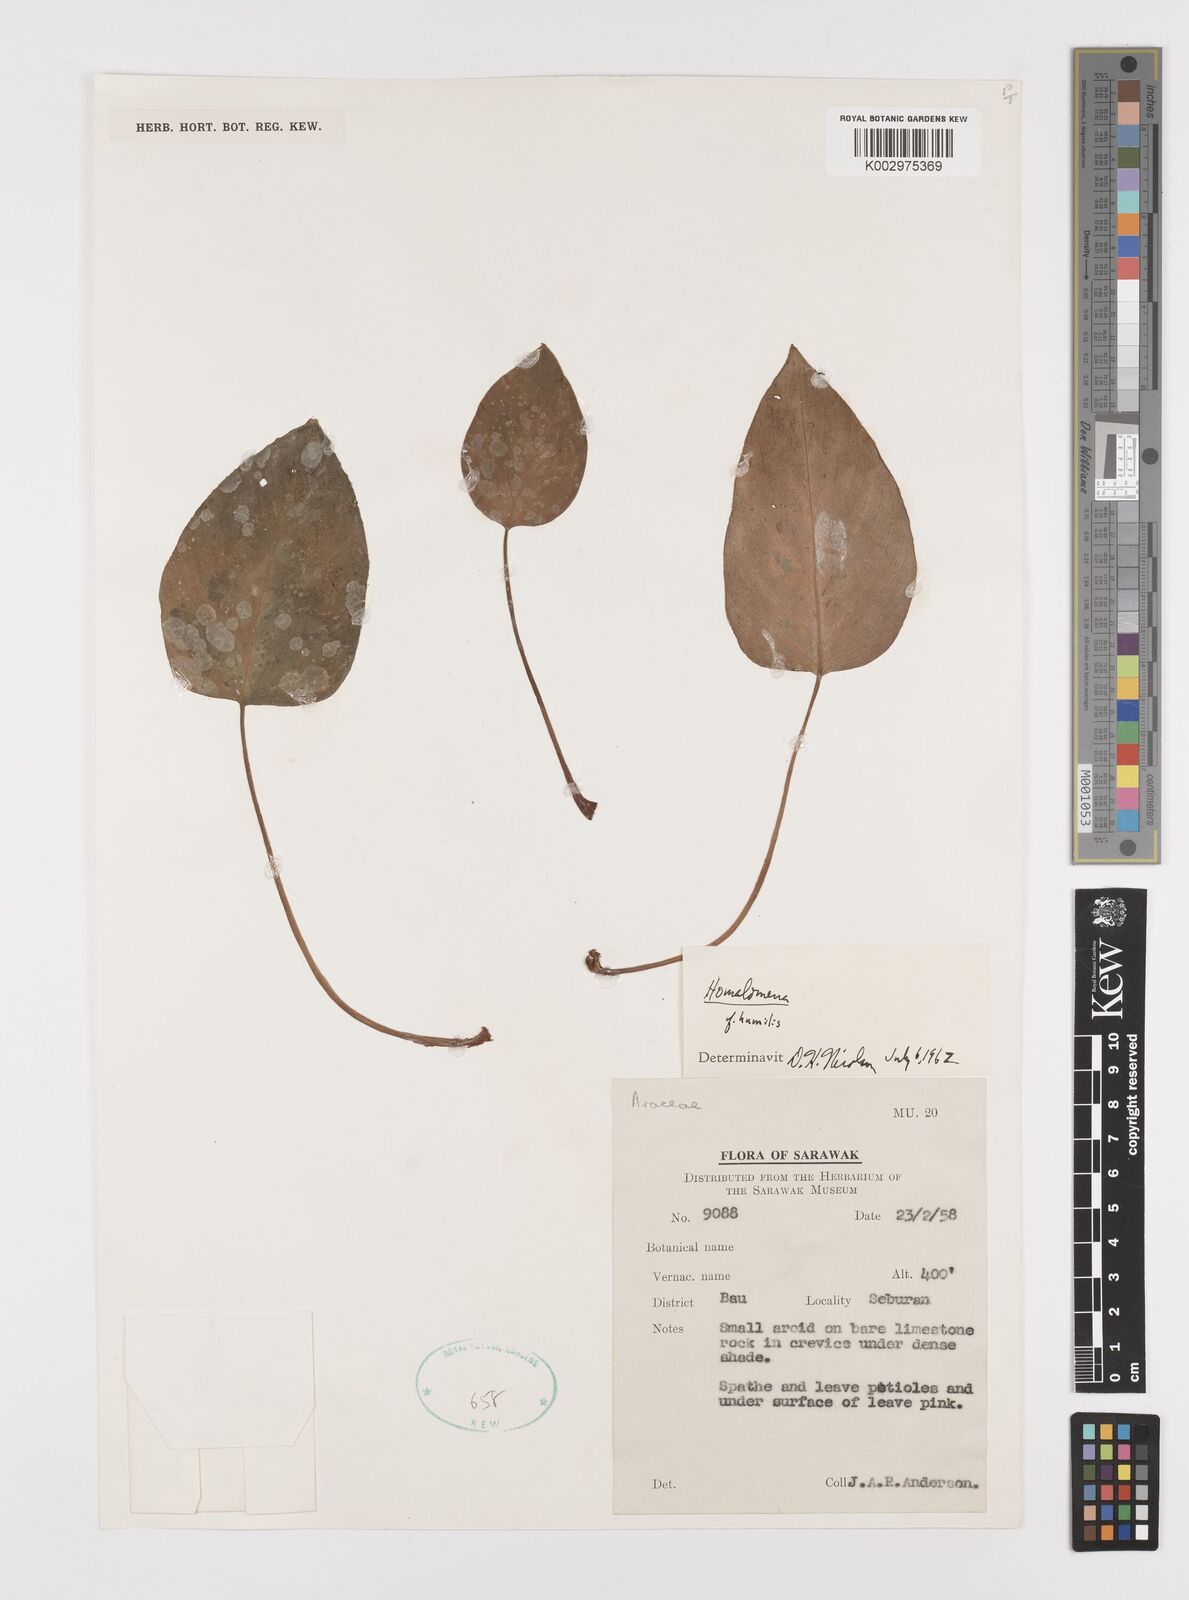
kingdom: Plantae
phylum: Tracheophyta
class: Liliopsida
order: Alismatales
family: Araceae
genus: Homalomena
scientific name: Homalomena humilis
